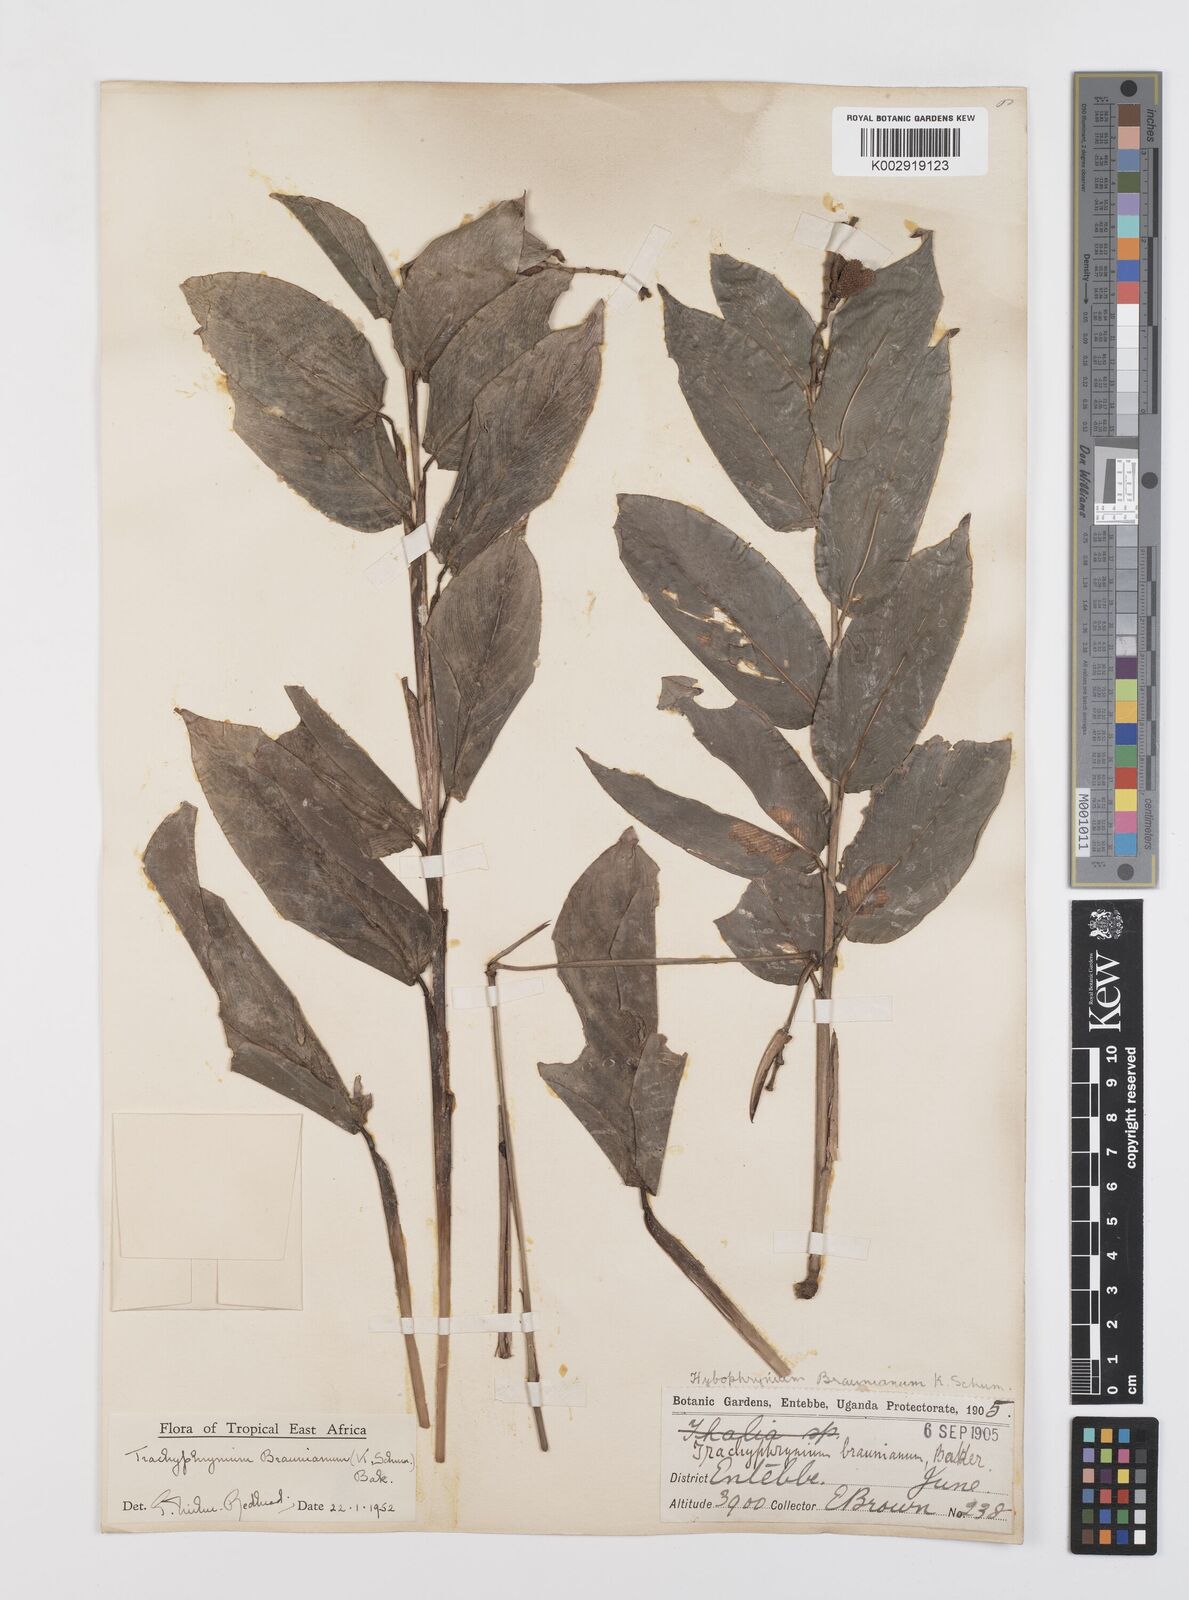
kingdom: Plantae
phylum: Tracheophyta
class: Liliopsida
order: Zingiberales
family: Marantaceae
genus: Trachyphrynium
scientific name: Trachyphrynium braunianum
